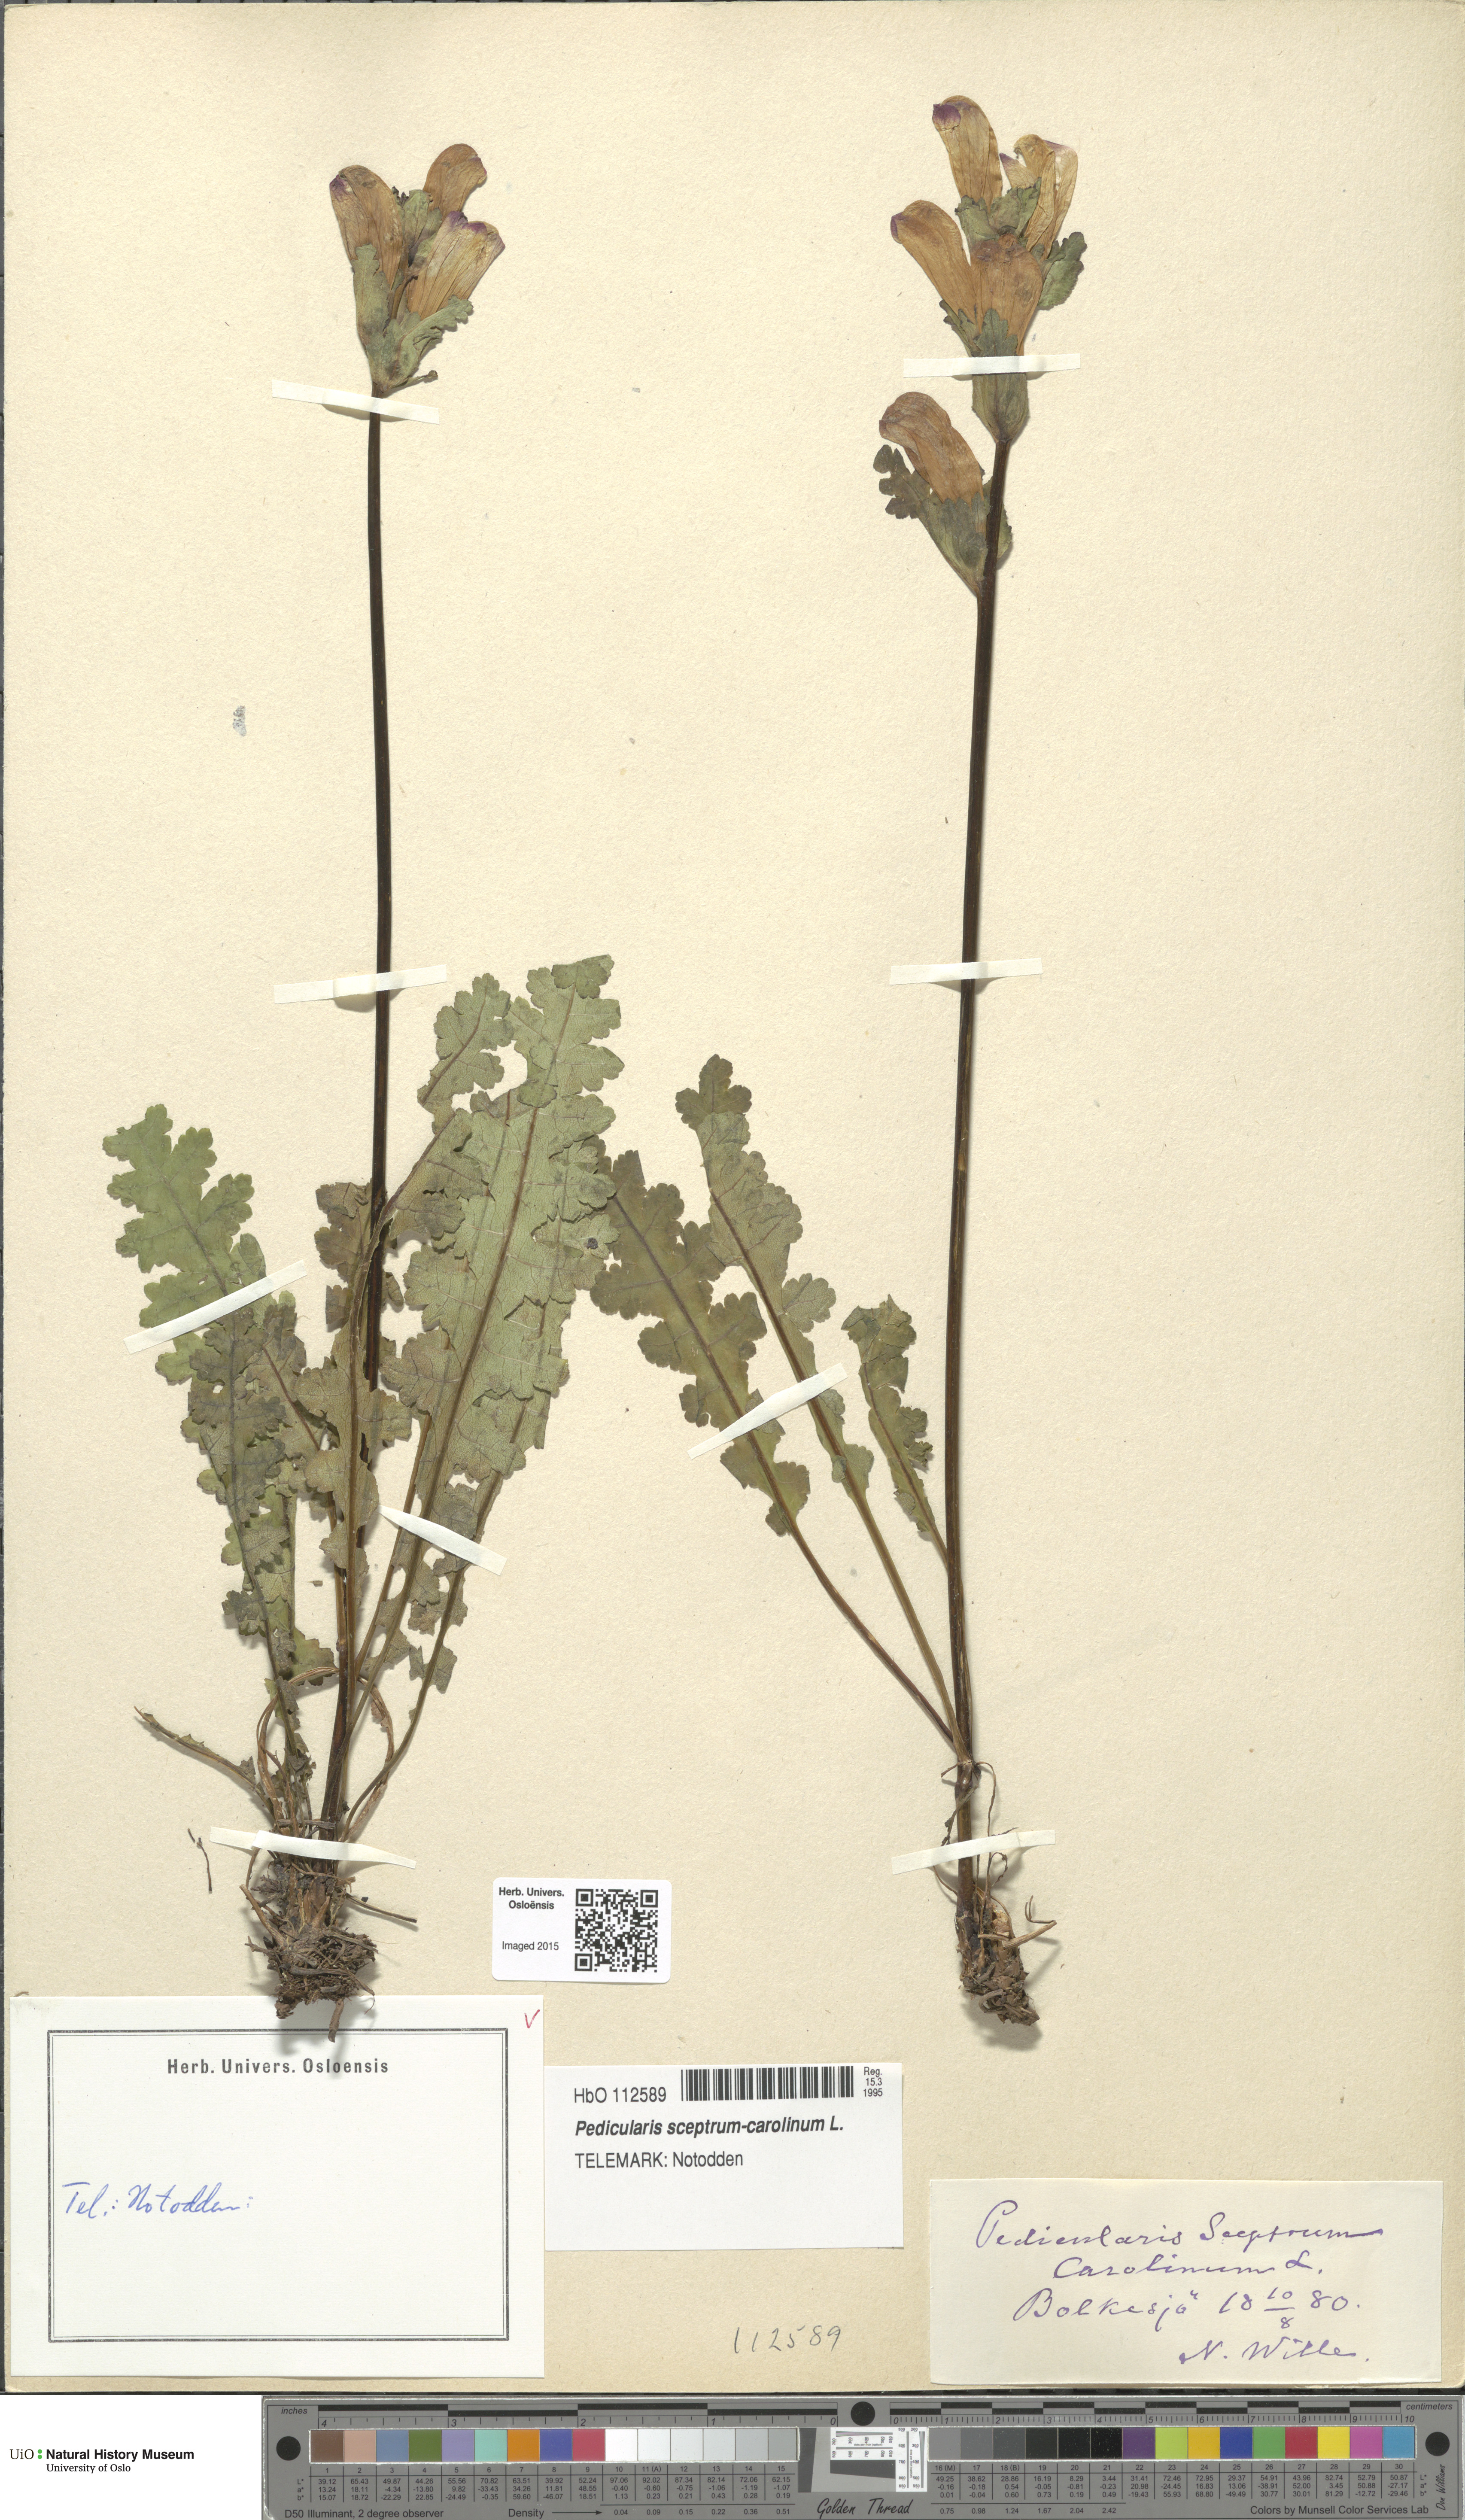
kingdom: Plantae
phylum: Tracheophyta
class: Magnoliopsida
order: Lamiales
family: Orobanchaceae
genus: Pedicularis
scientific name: Pedicularis sceptrum-carolinum
